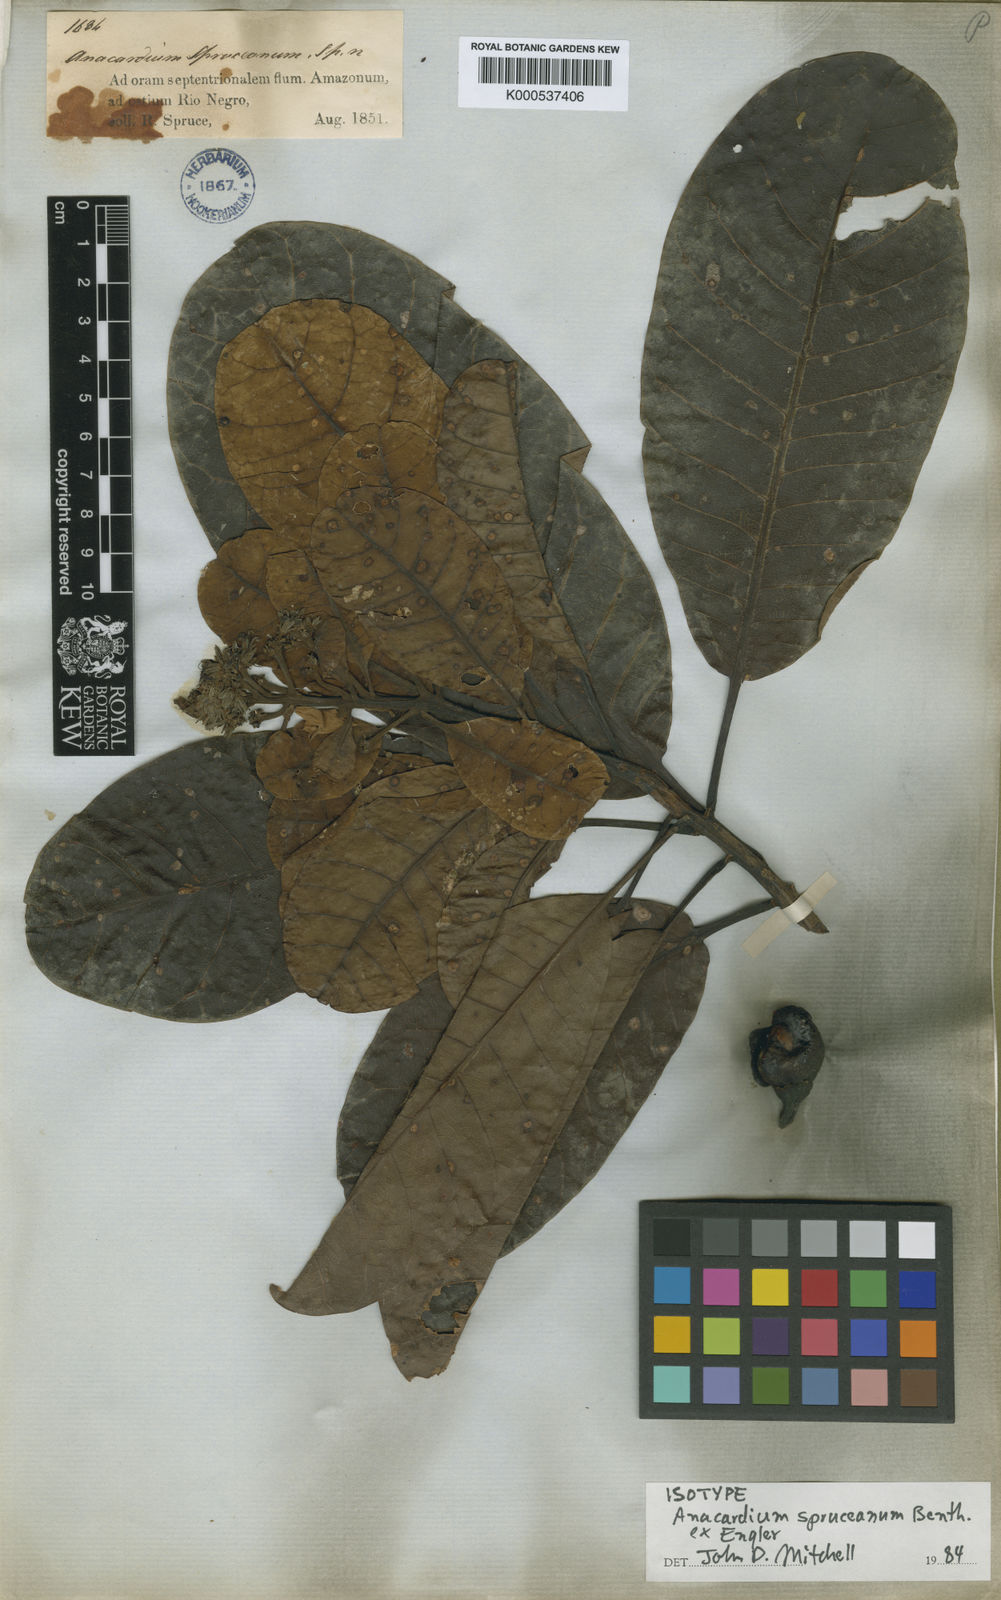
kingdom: Plantae
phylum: Tracheophyta
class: Magnoliopsida
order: Sapindales
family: Anacardiaceae
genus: Anacardium
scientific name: Anacardium spruceanum
